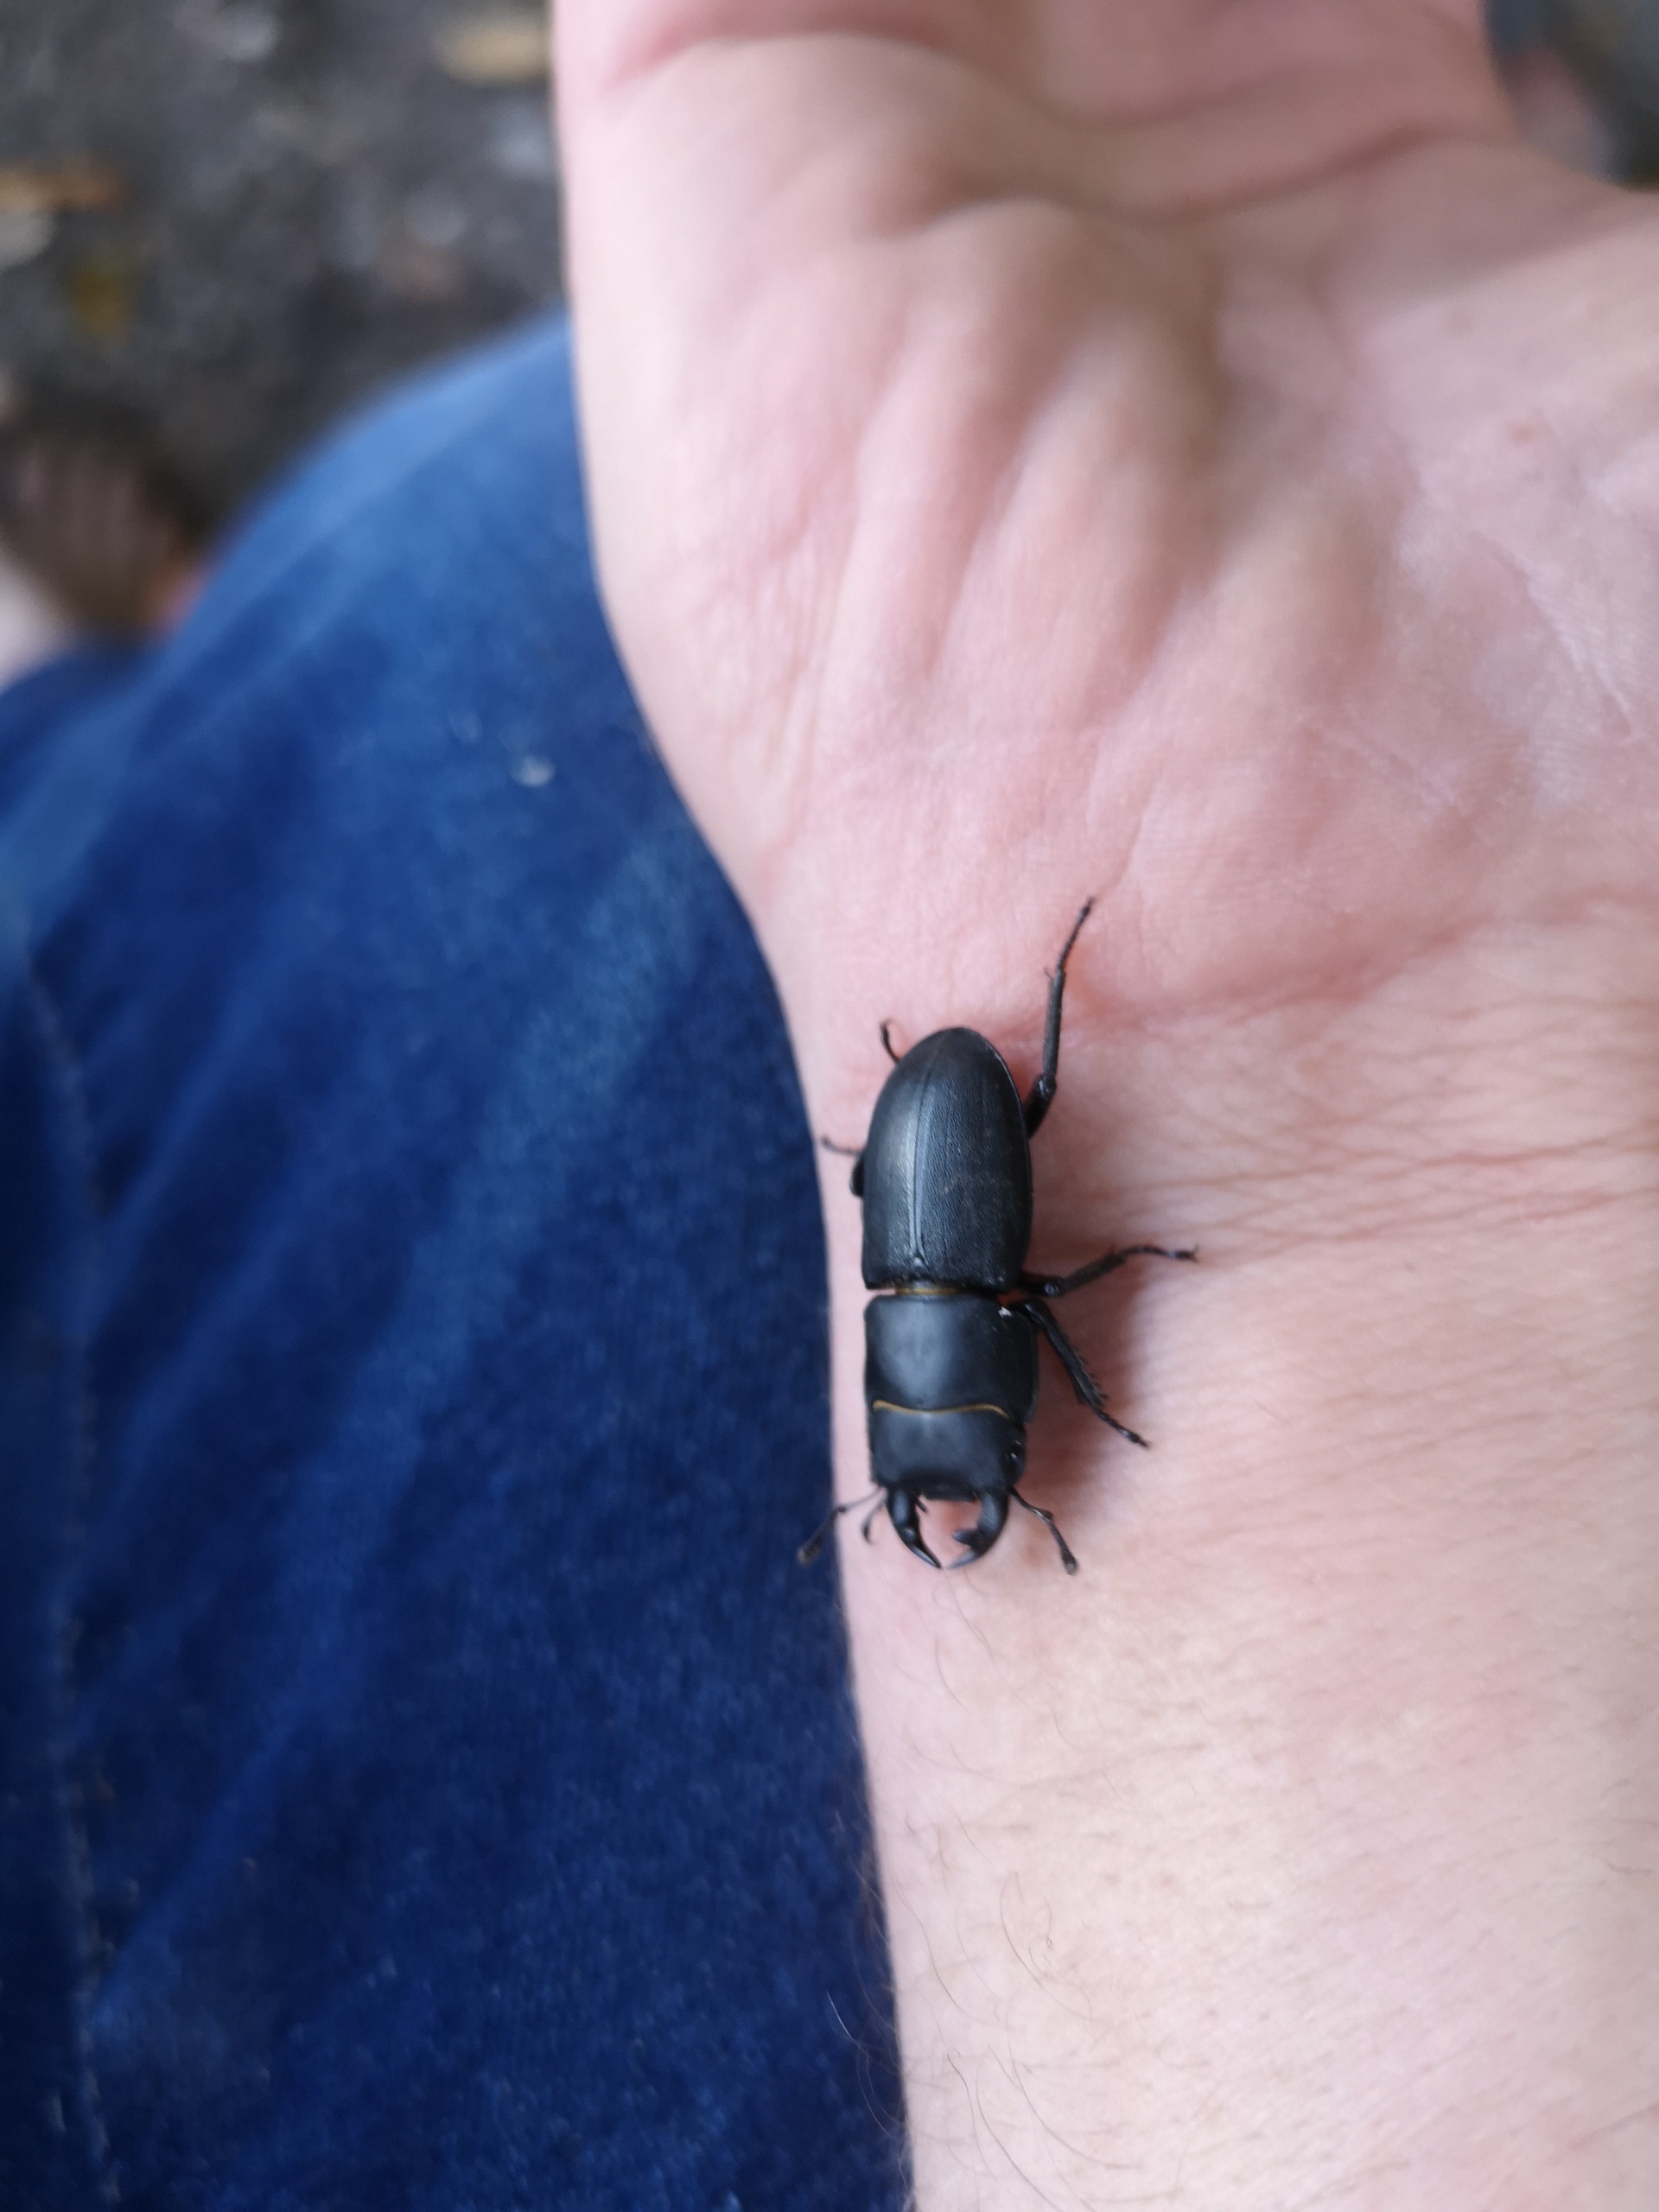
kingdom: Animalia
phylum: Arthropoda
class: Insecta
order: Coleoptera
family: Lucanidae
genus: Dorcus
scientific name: Dorcus parallelipipedus
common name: Bøghjort
